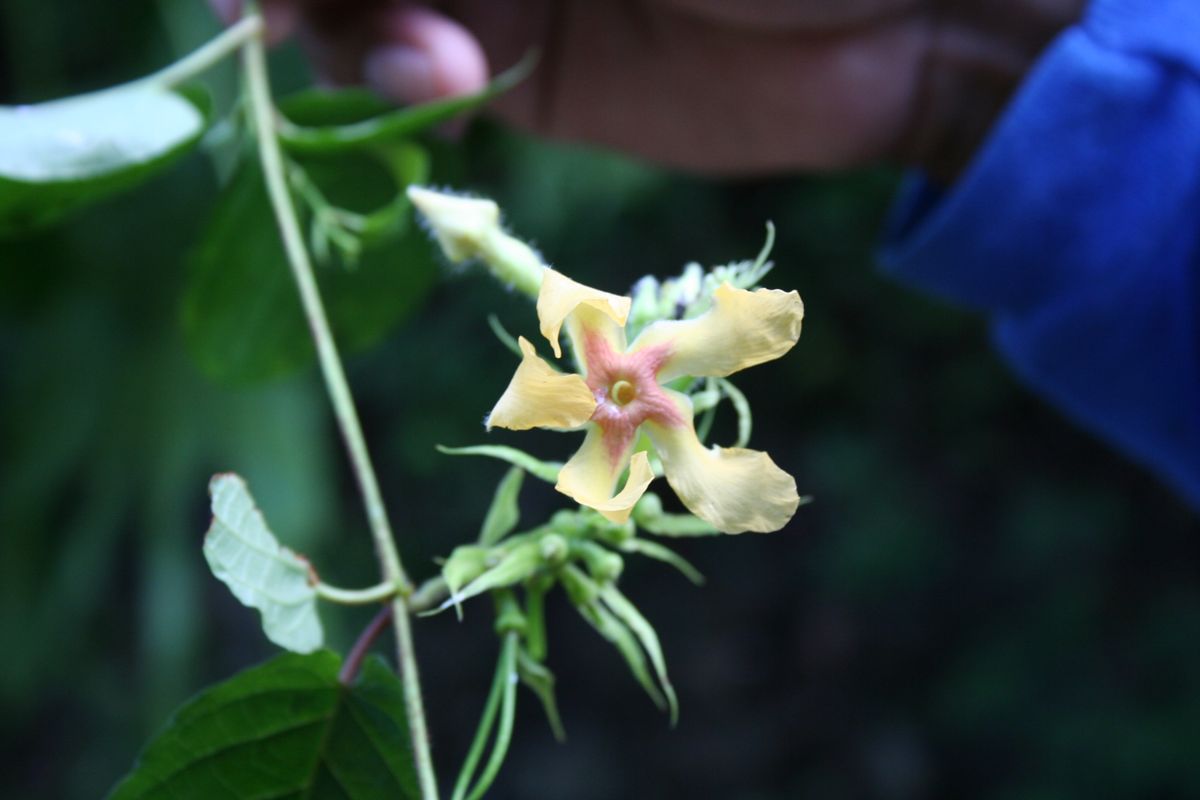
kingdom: Plantae
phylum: Tracheophyta
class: Magnoliopsida
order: Gentianales
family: Apocynaceae
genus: Mandevilla
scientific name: Mandevilla villosa
